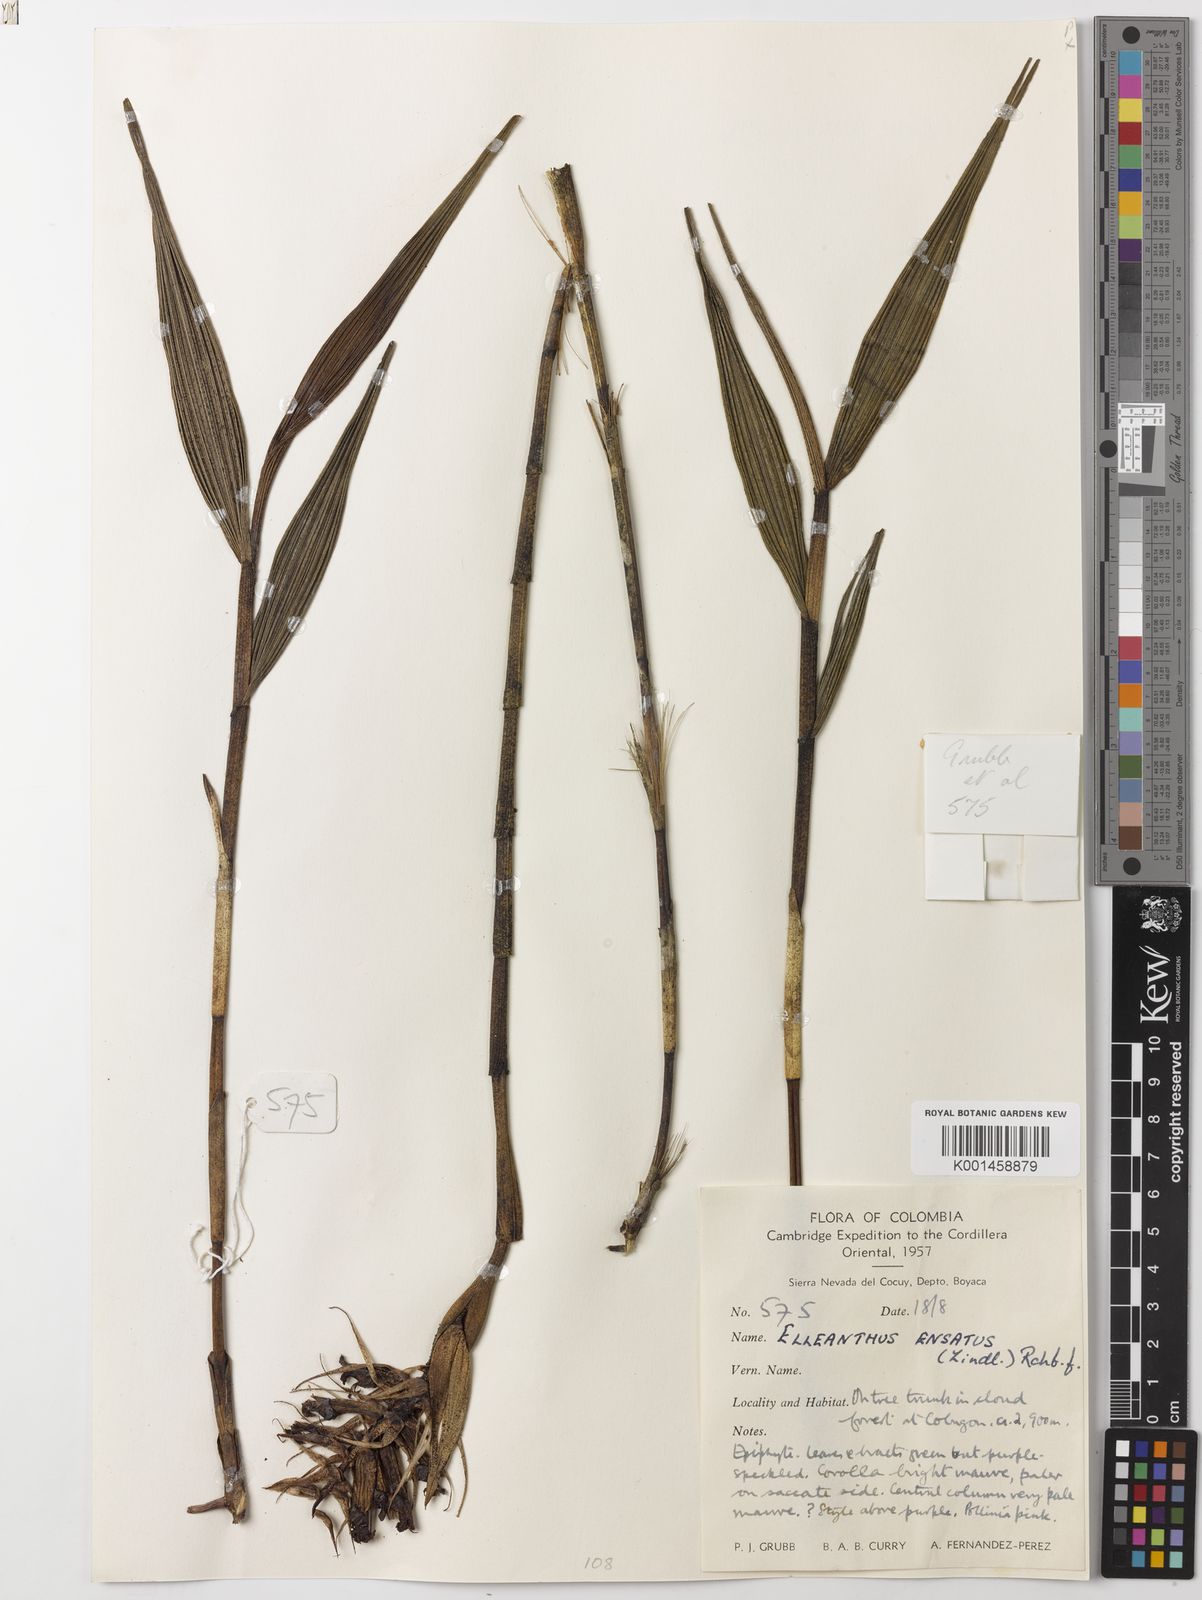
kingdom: Plantae
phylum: Tracheophyta
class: Liliopsida
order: Asparagales
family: Orchidaceae
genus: Elleanthus
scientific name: Elleanthus ensatus
